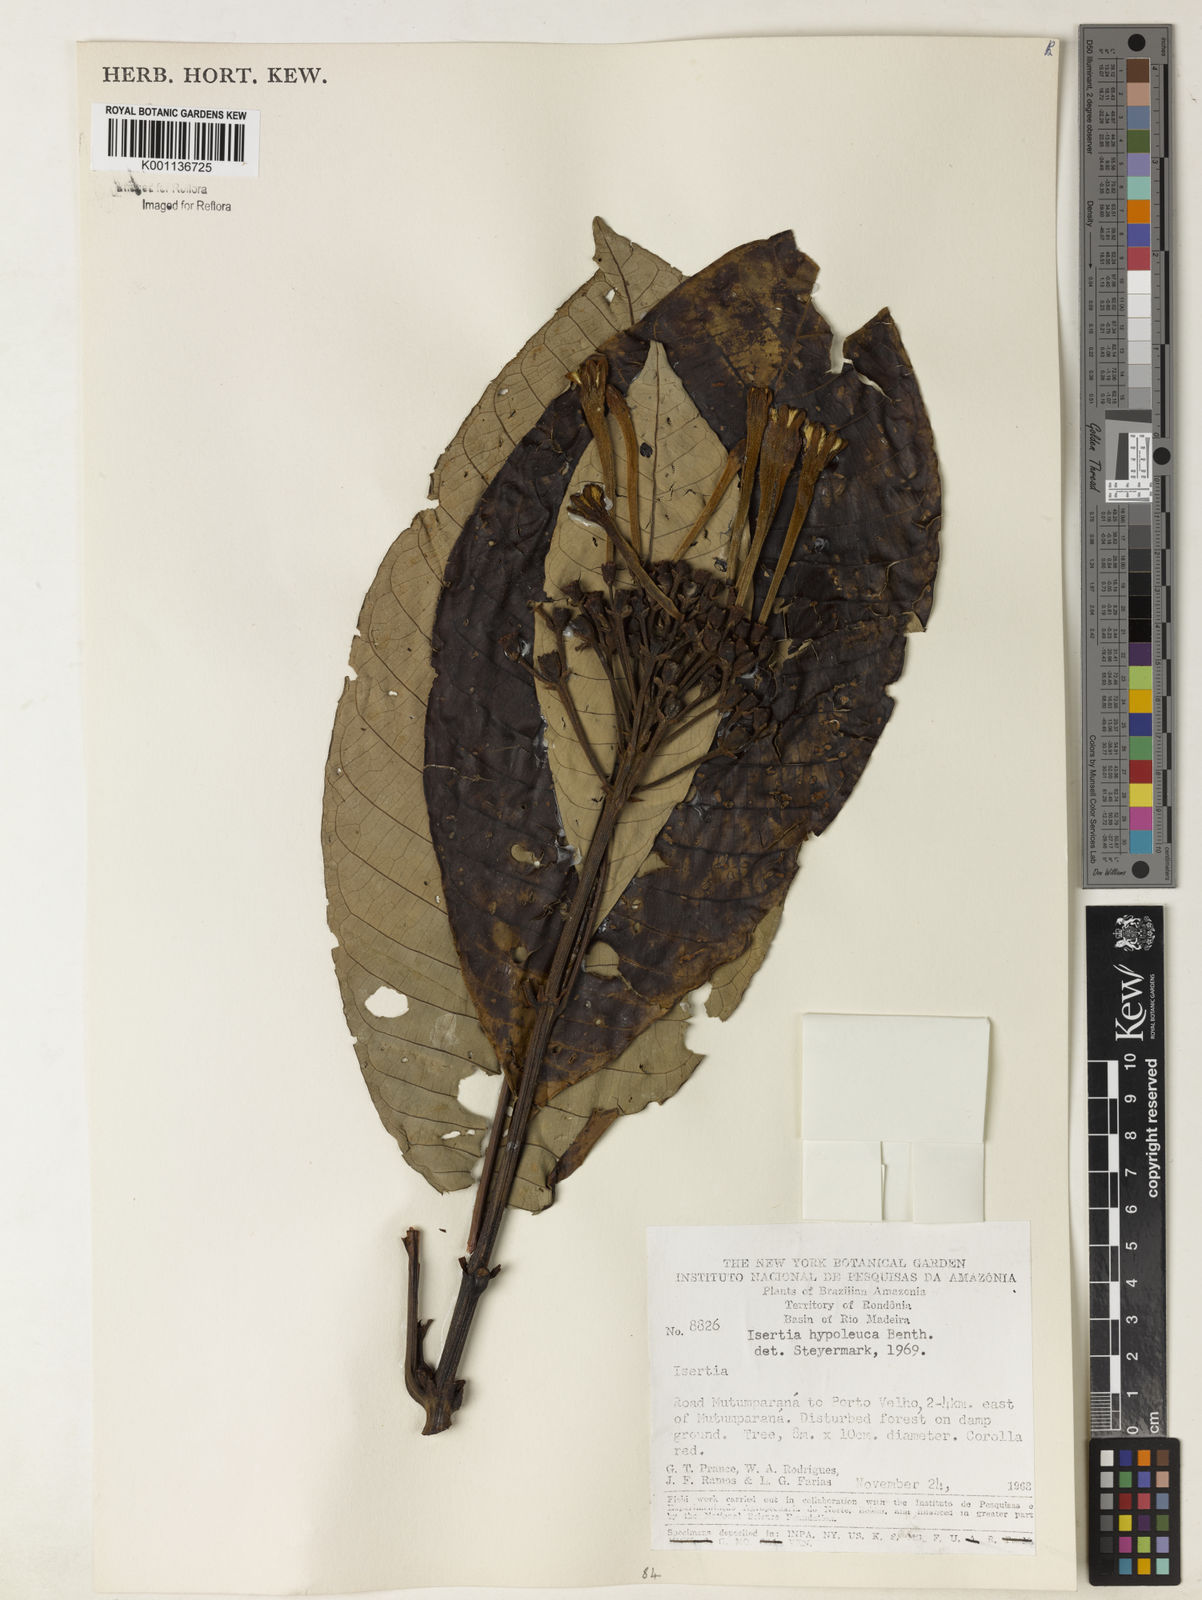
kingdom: Plantae
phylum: Tracheophyta
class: Magnoliopsida
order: Gentianales
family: Rubiaceae
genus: Isertia
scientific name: Isertia hypoleuca
